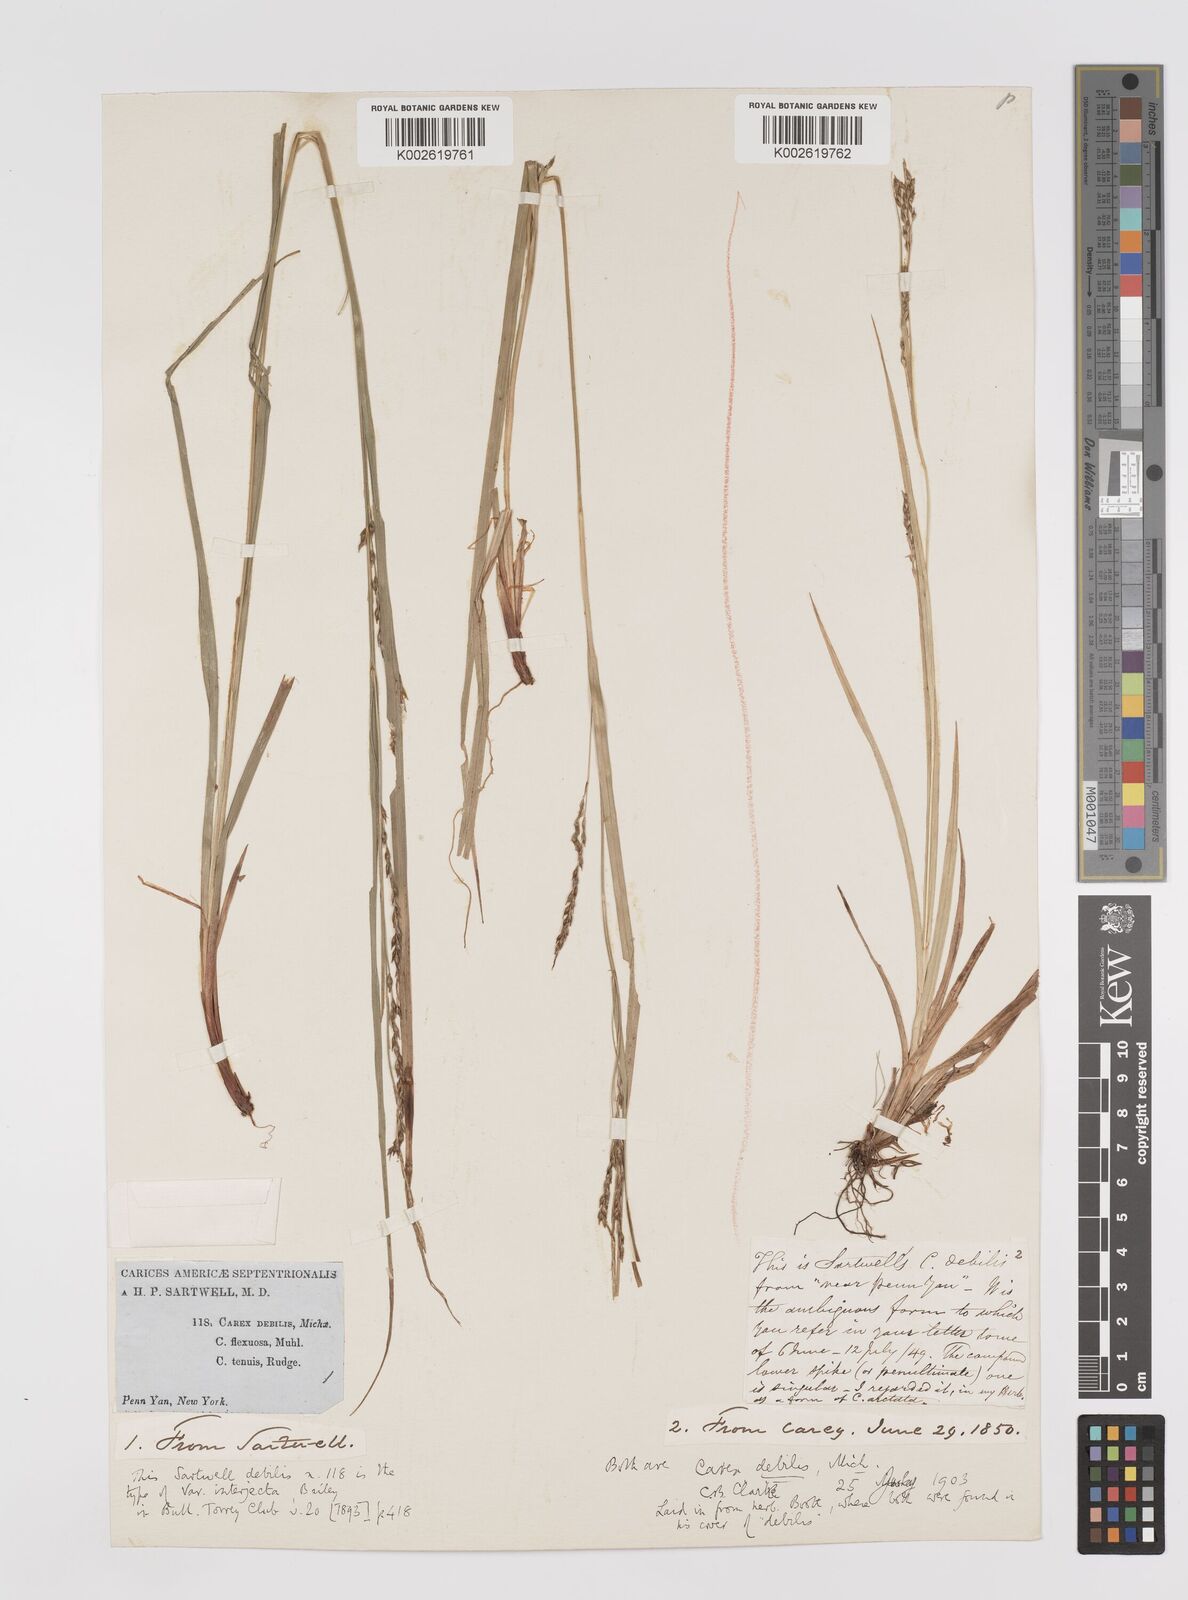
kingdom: Plantae
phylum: Tracheophyta
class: Liliopsida
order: Poales
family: Cyperaceae
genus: Carex
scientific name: Carex debilis
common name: White-edge sedge
